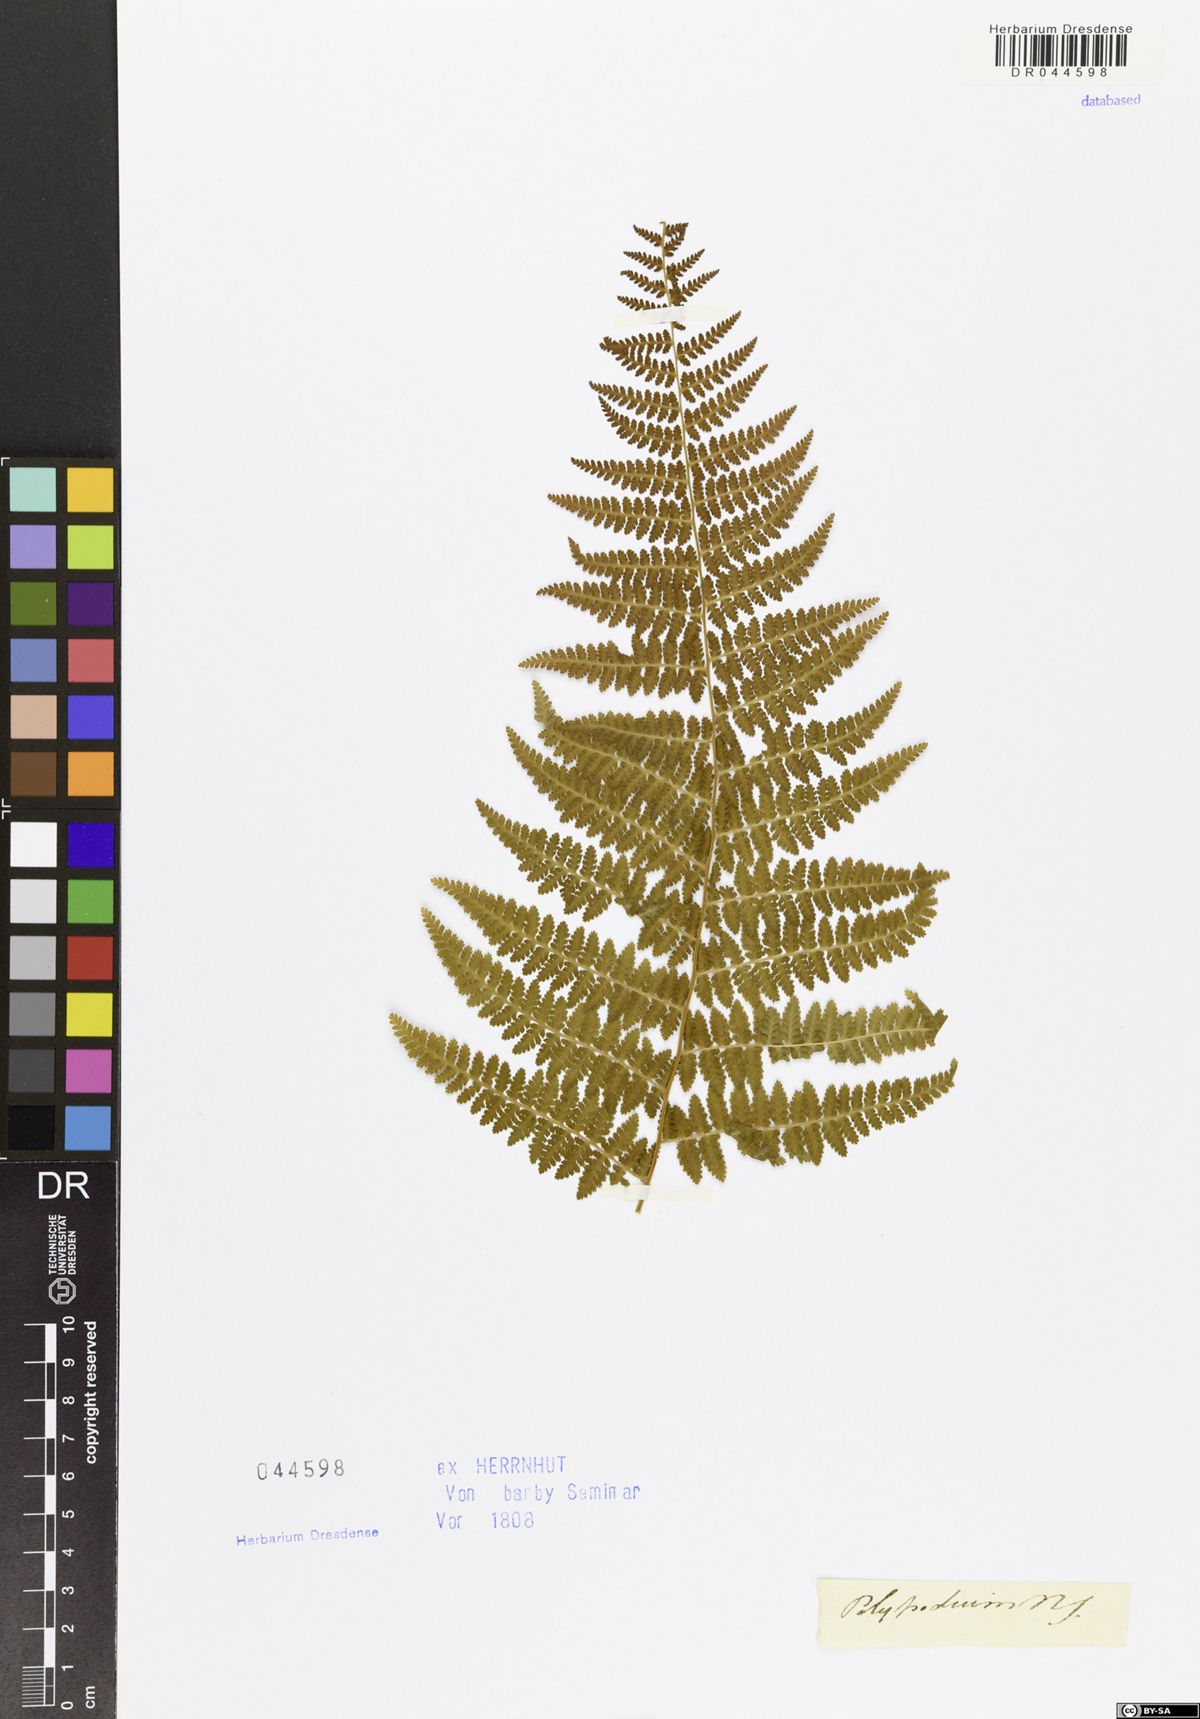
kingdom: Plantae
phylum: Tracheophyta
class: Polypodiopsida
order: Polypodiales
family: Dennstaedtiaceae
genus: Hypolepis
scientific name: Hypolepis
